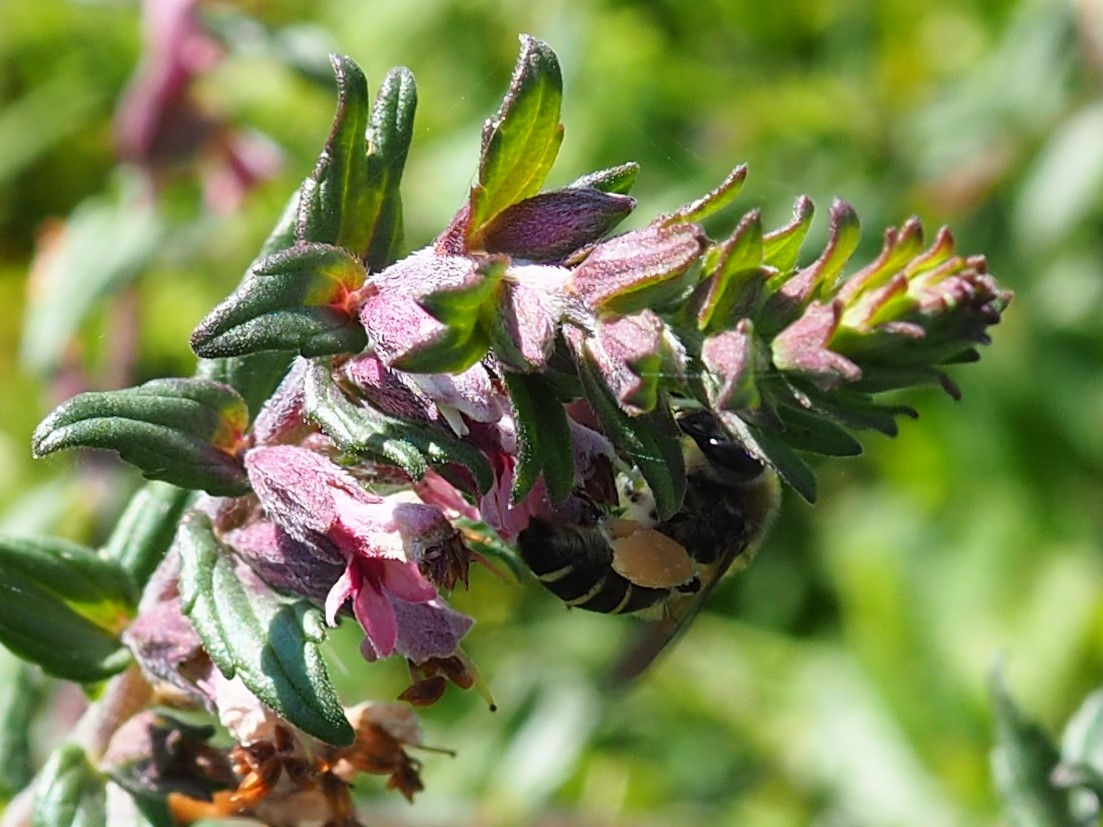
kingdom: Animalia
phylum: Arthropoda
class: Insecta
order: Hymenoptera
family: Melittidae
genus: Melitta
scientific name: Melitta tricincta
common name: Rødtopbi
